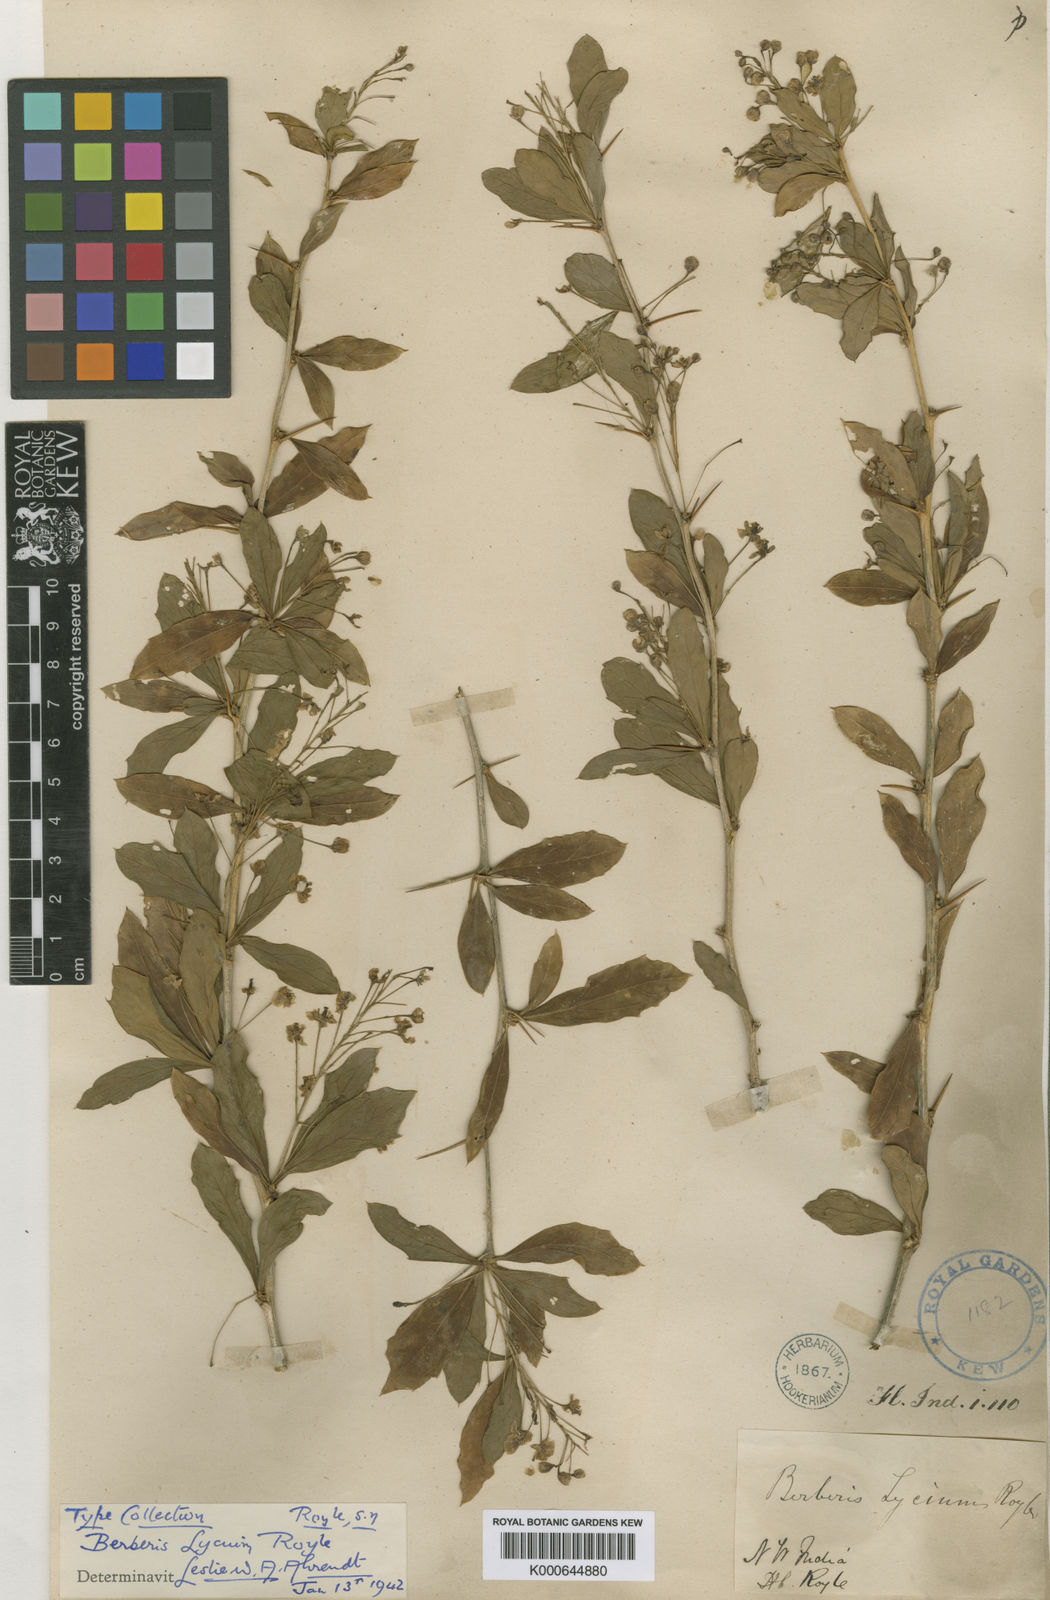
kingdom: Plantae
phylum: Tracheophyta
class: Magnoliopsida
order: Ranunculales
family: Berberidaceae
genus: Berberis
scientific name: Berberis lycium
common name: Boxthorn barberry
